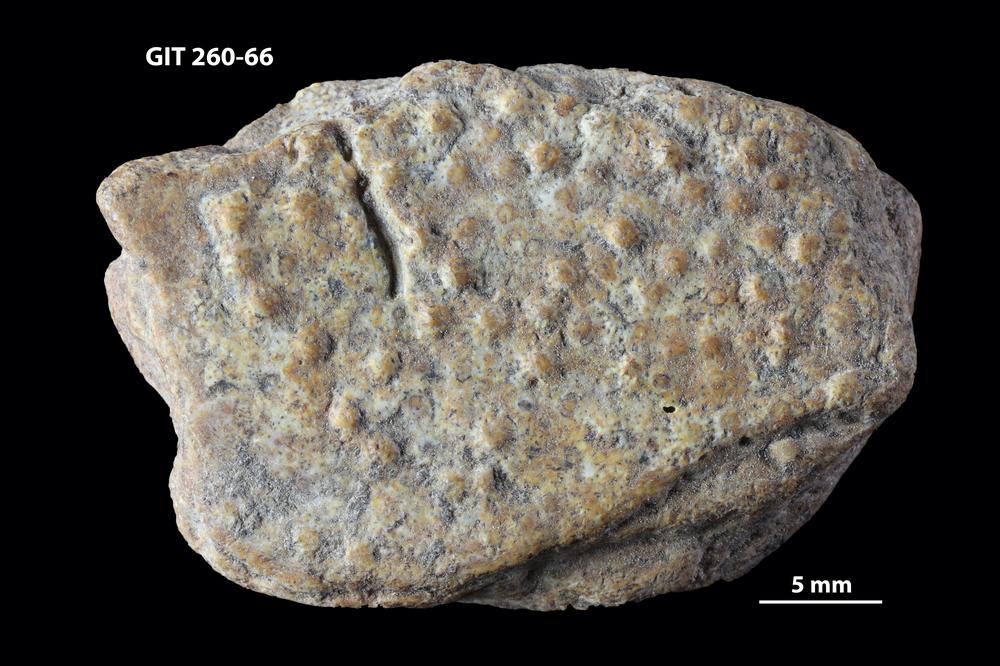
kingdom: Animalia
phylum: Chordata
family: Homostiidae
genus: Homostius
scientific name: Homostius
